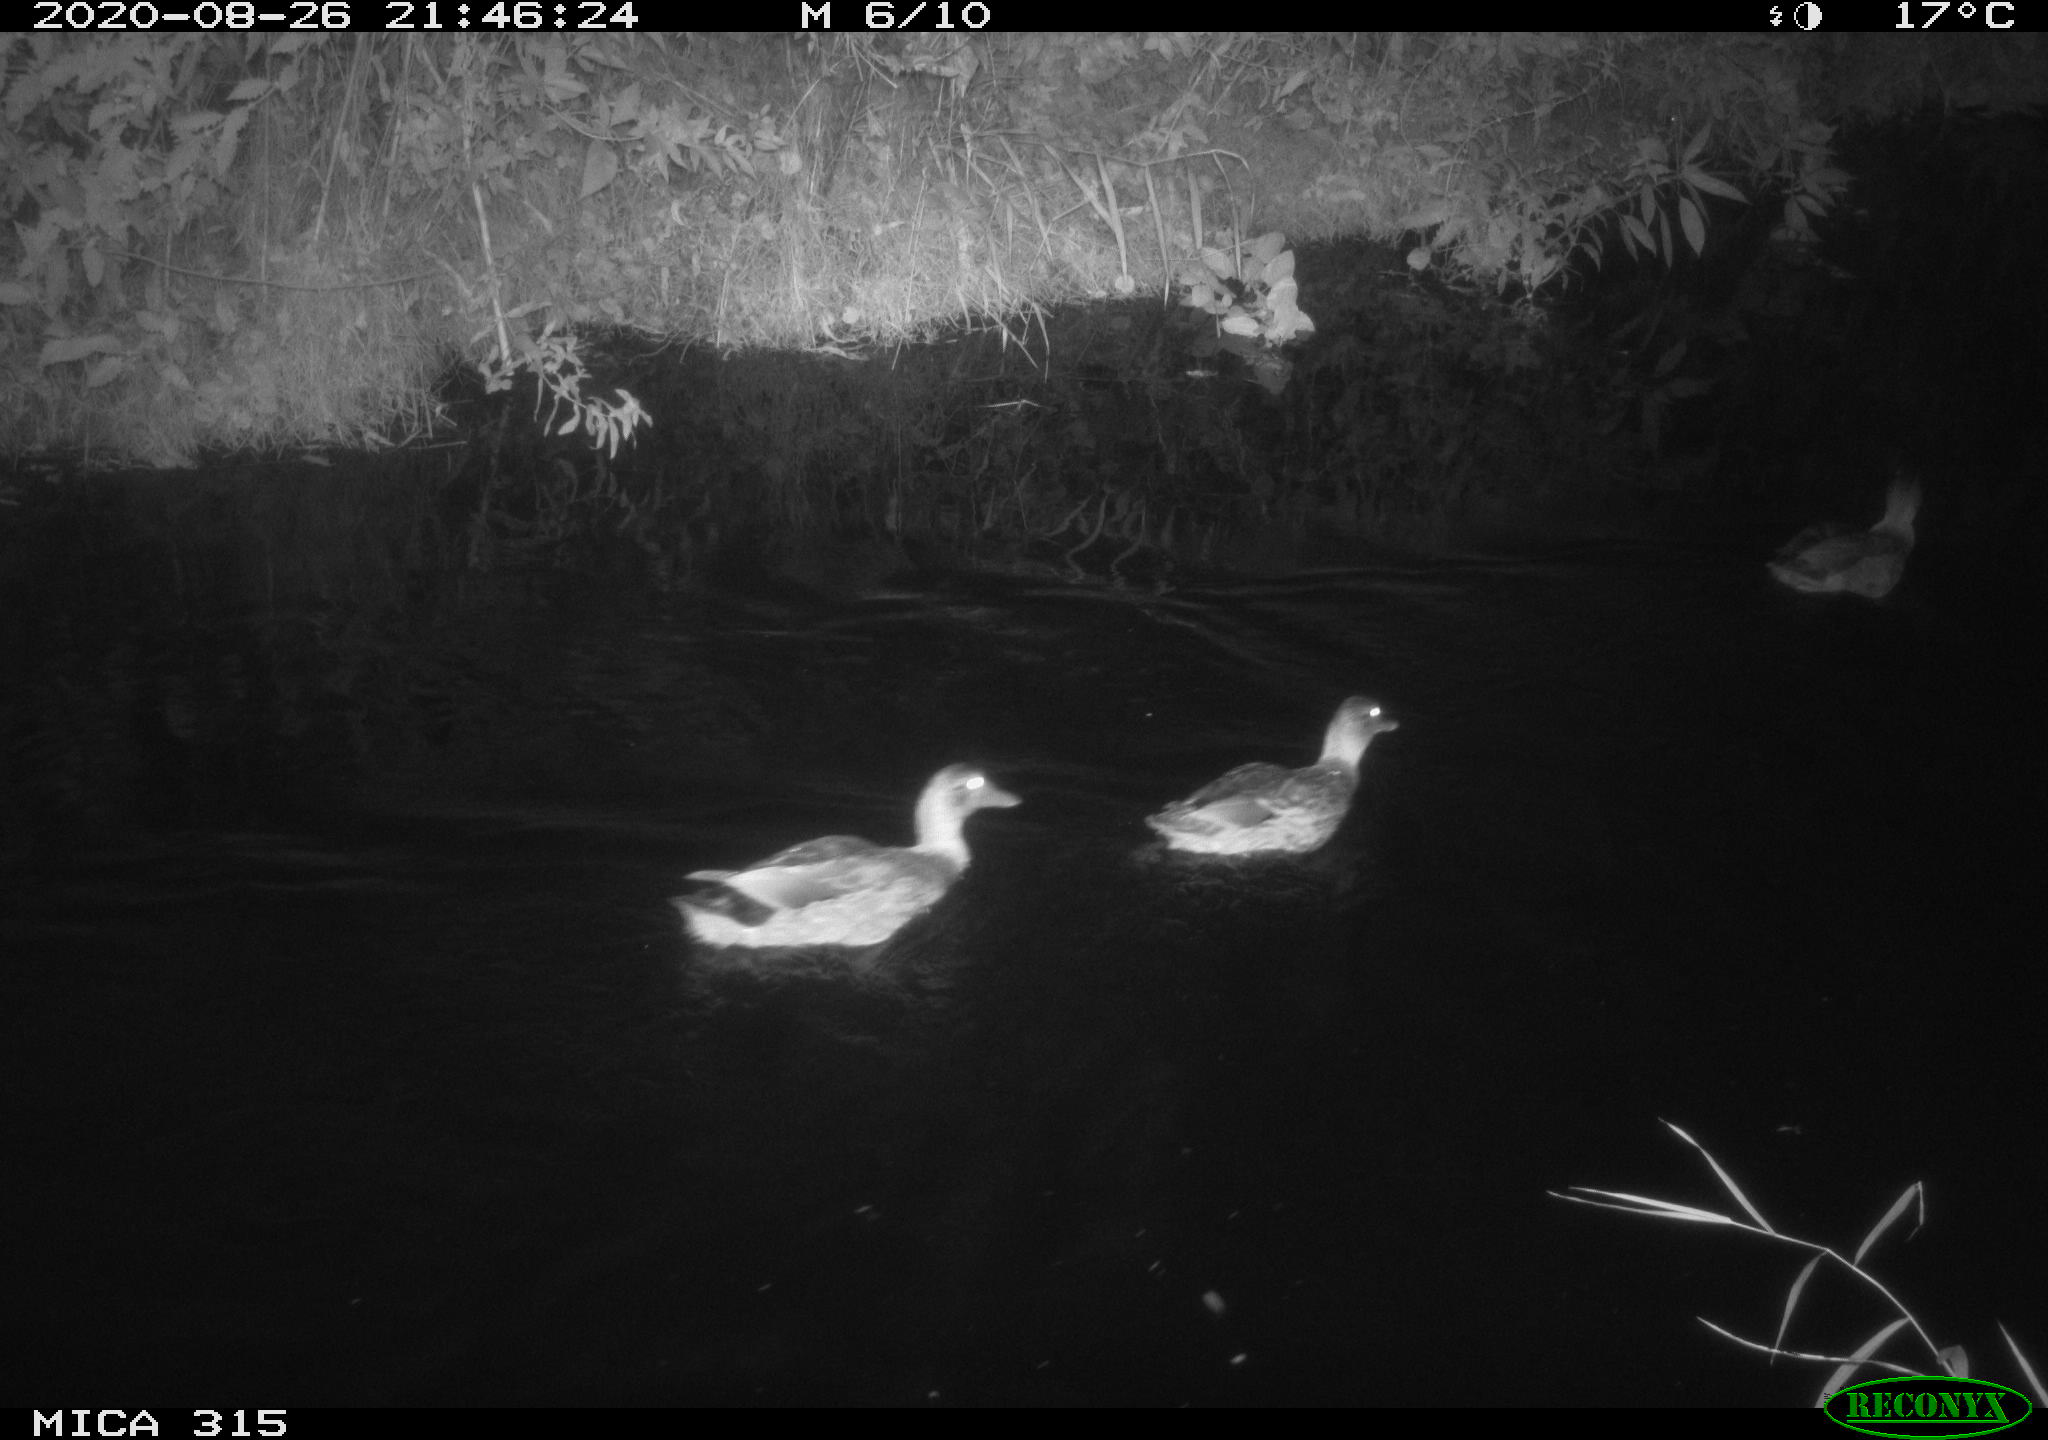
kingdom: Animalia
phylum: Chordata
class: Aves
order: Anseriformes
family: Anatidae
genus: Anas
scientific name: Anas platyrhynchos
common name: Mallard
